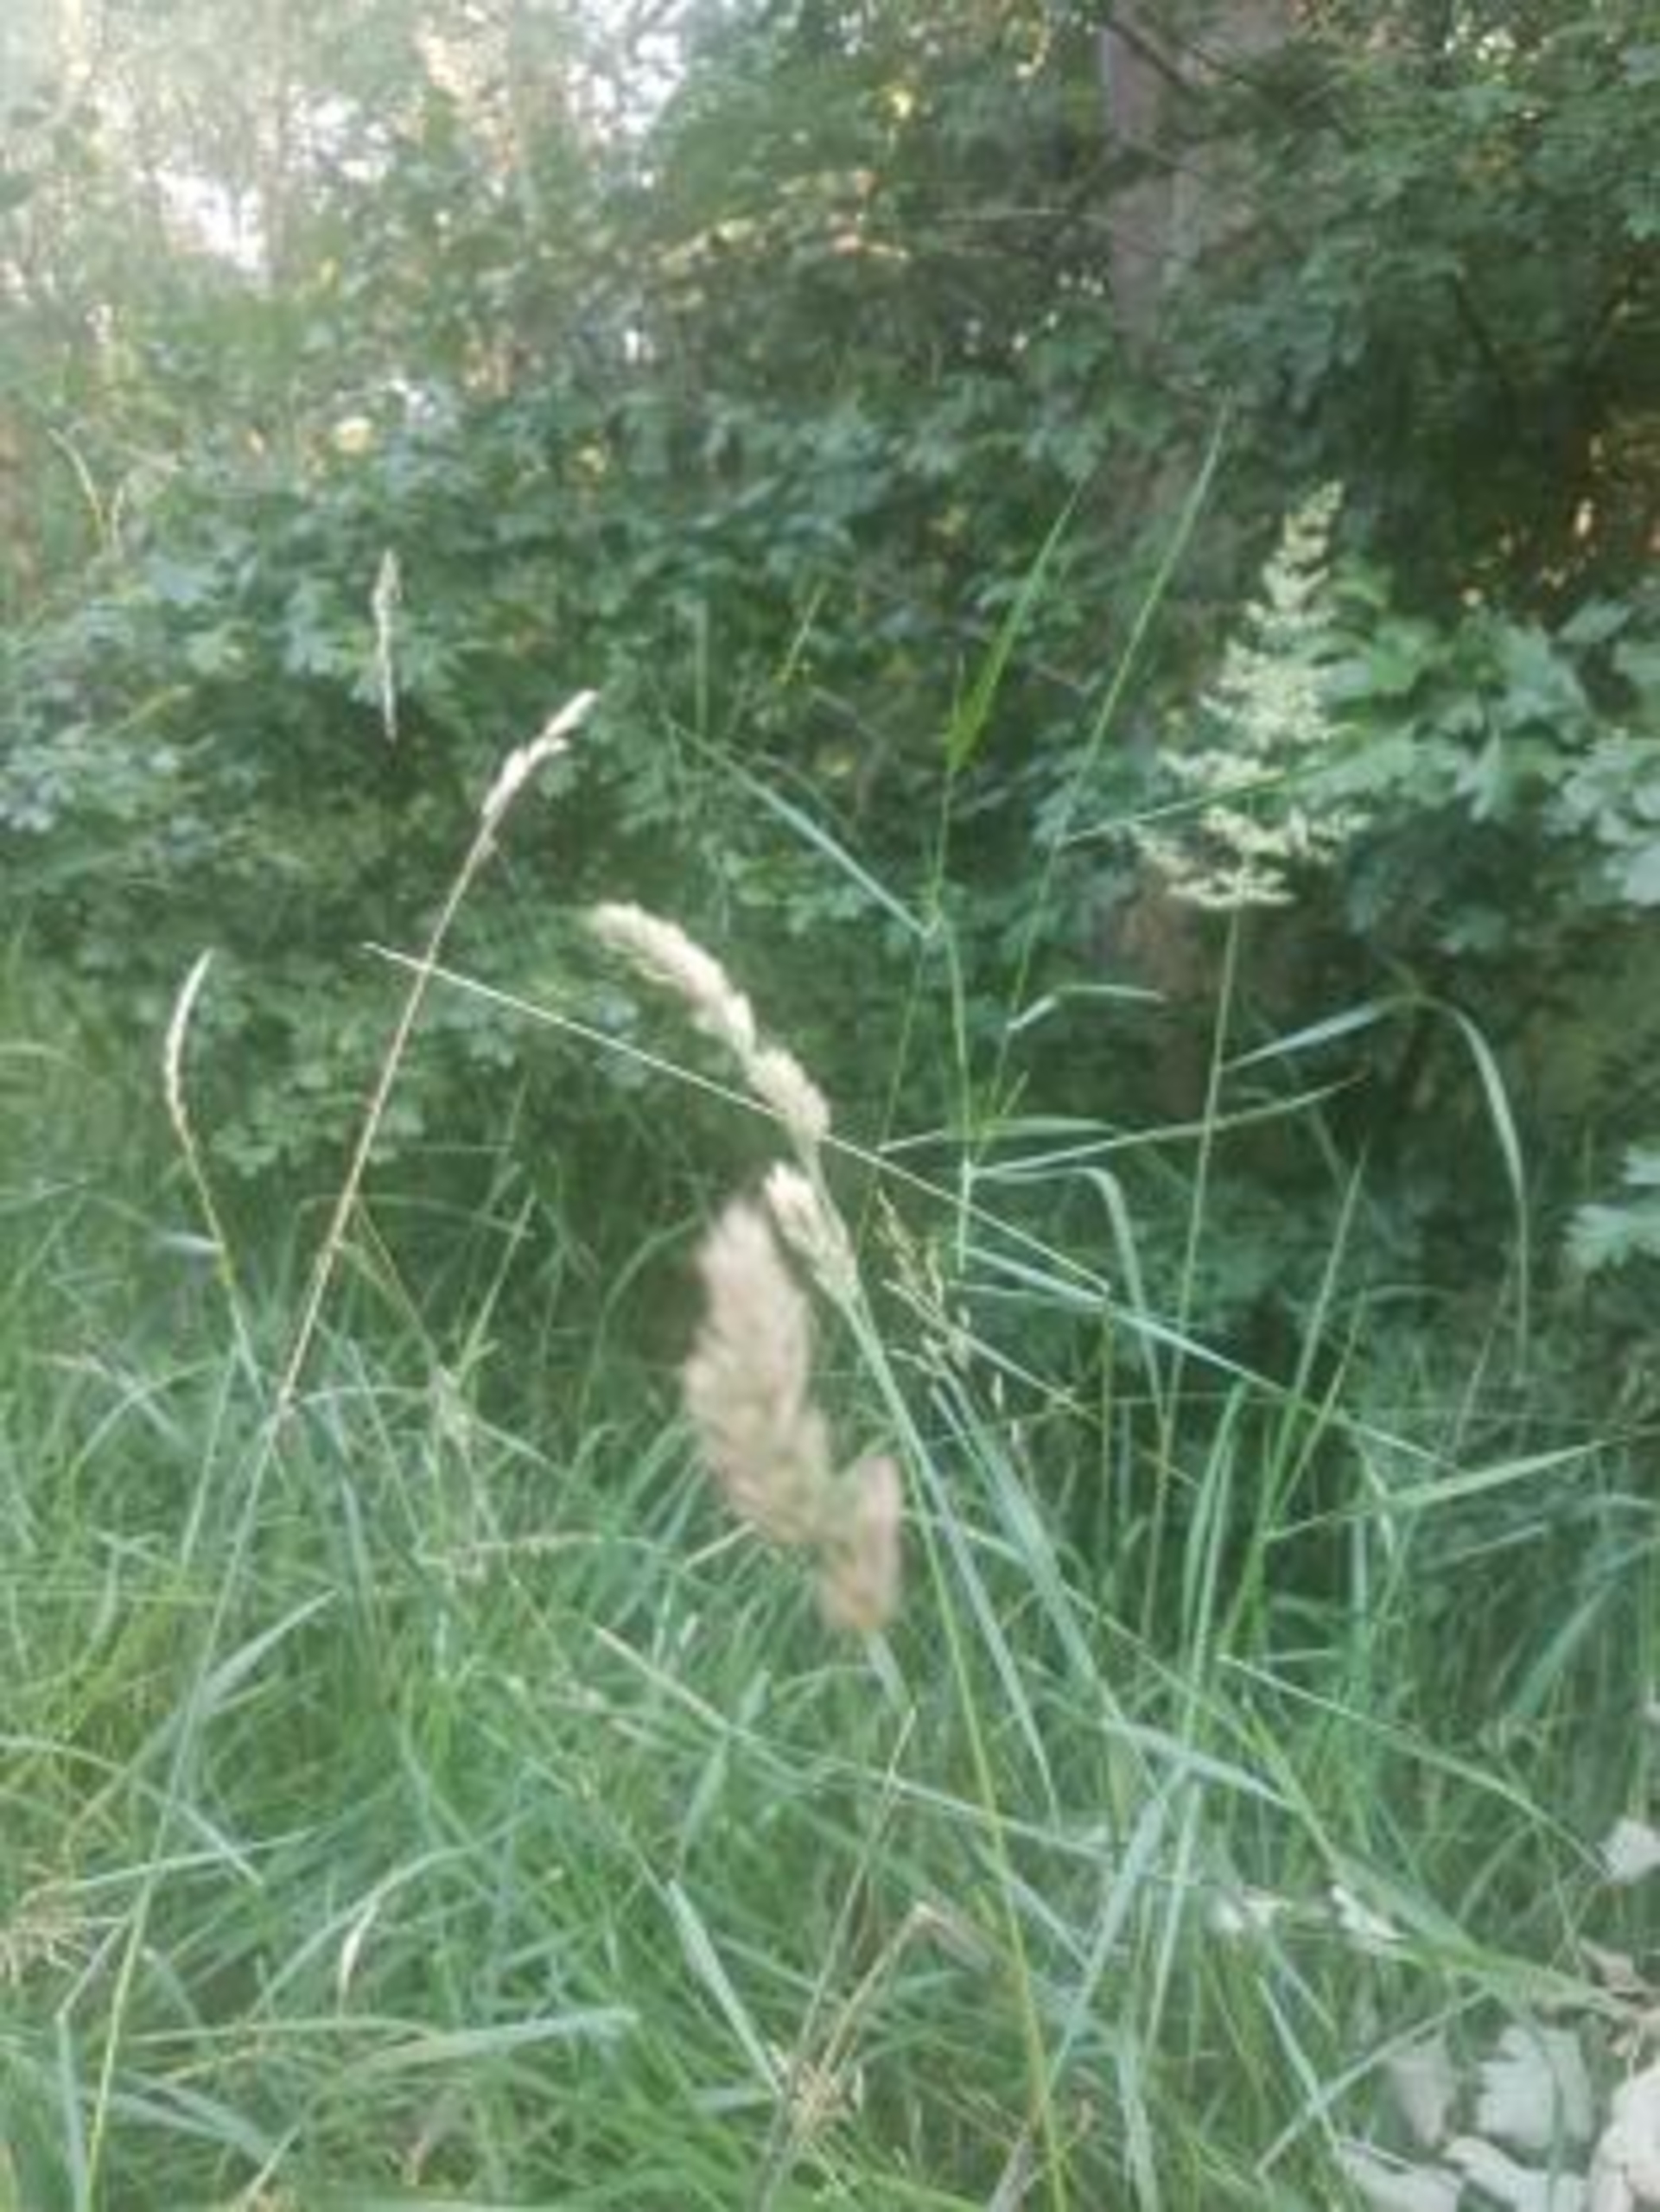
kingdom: Plantae
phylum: Tracheophyta
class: Liliopsida
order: Poales
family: Poaceae
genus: Dactylis
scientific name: Dactylis glomerata
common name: Almindelig hundegræs
